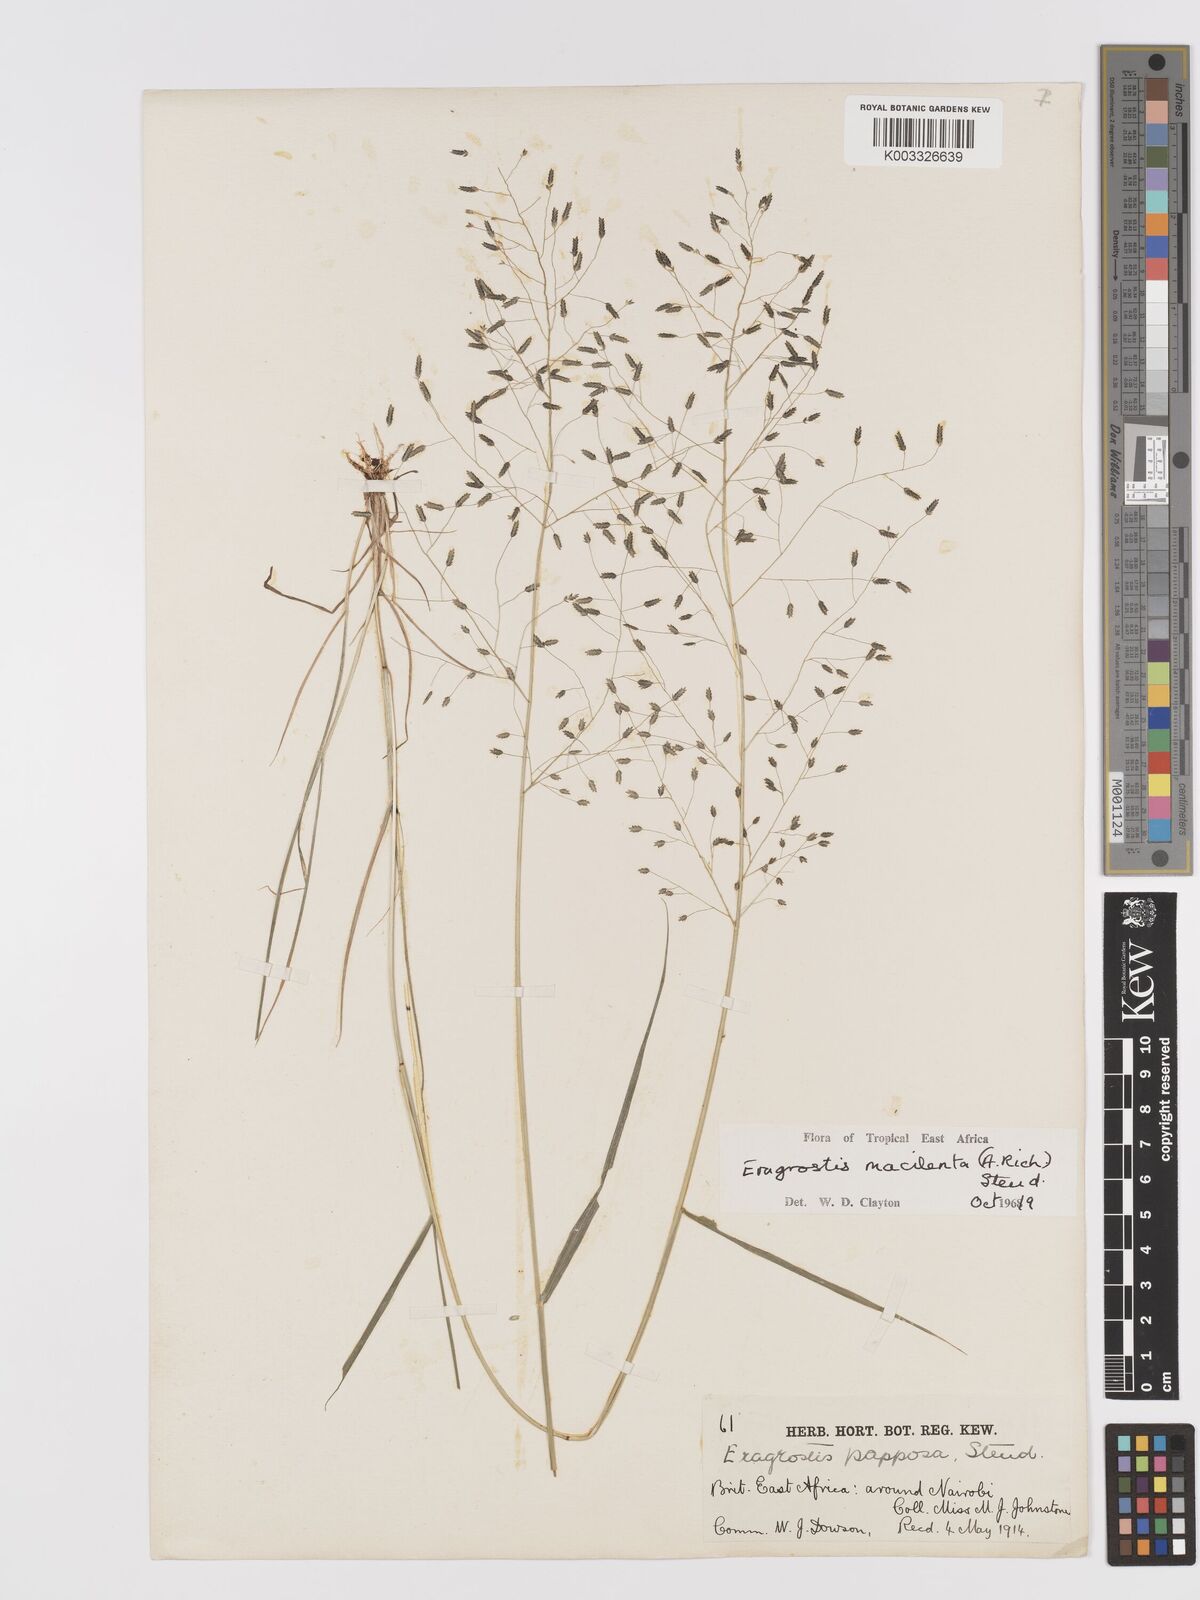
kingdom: Plantae
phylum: Tracheophyta
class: Liliopsida
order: Poales
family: Poaceae
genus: Eragrostis
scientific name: Eragrostis macilenta
